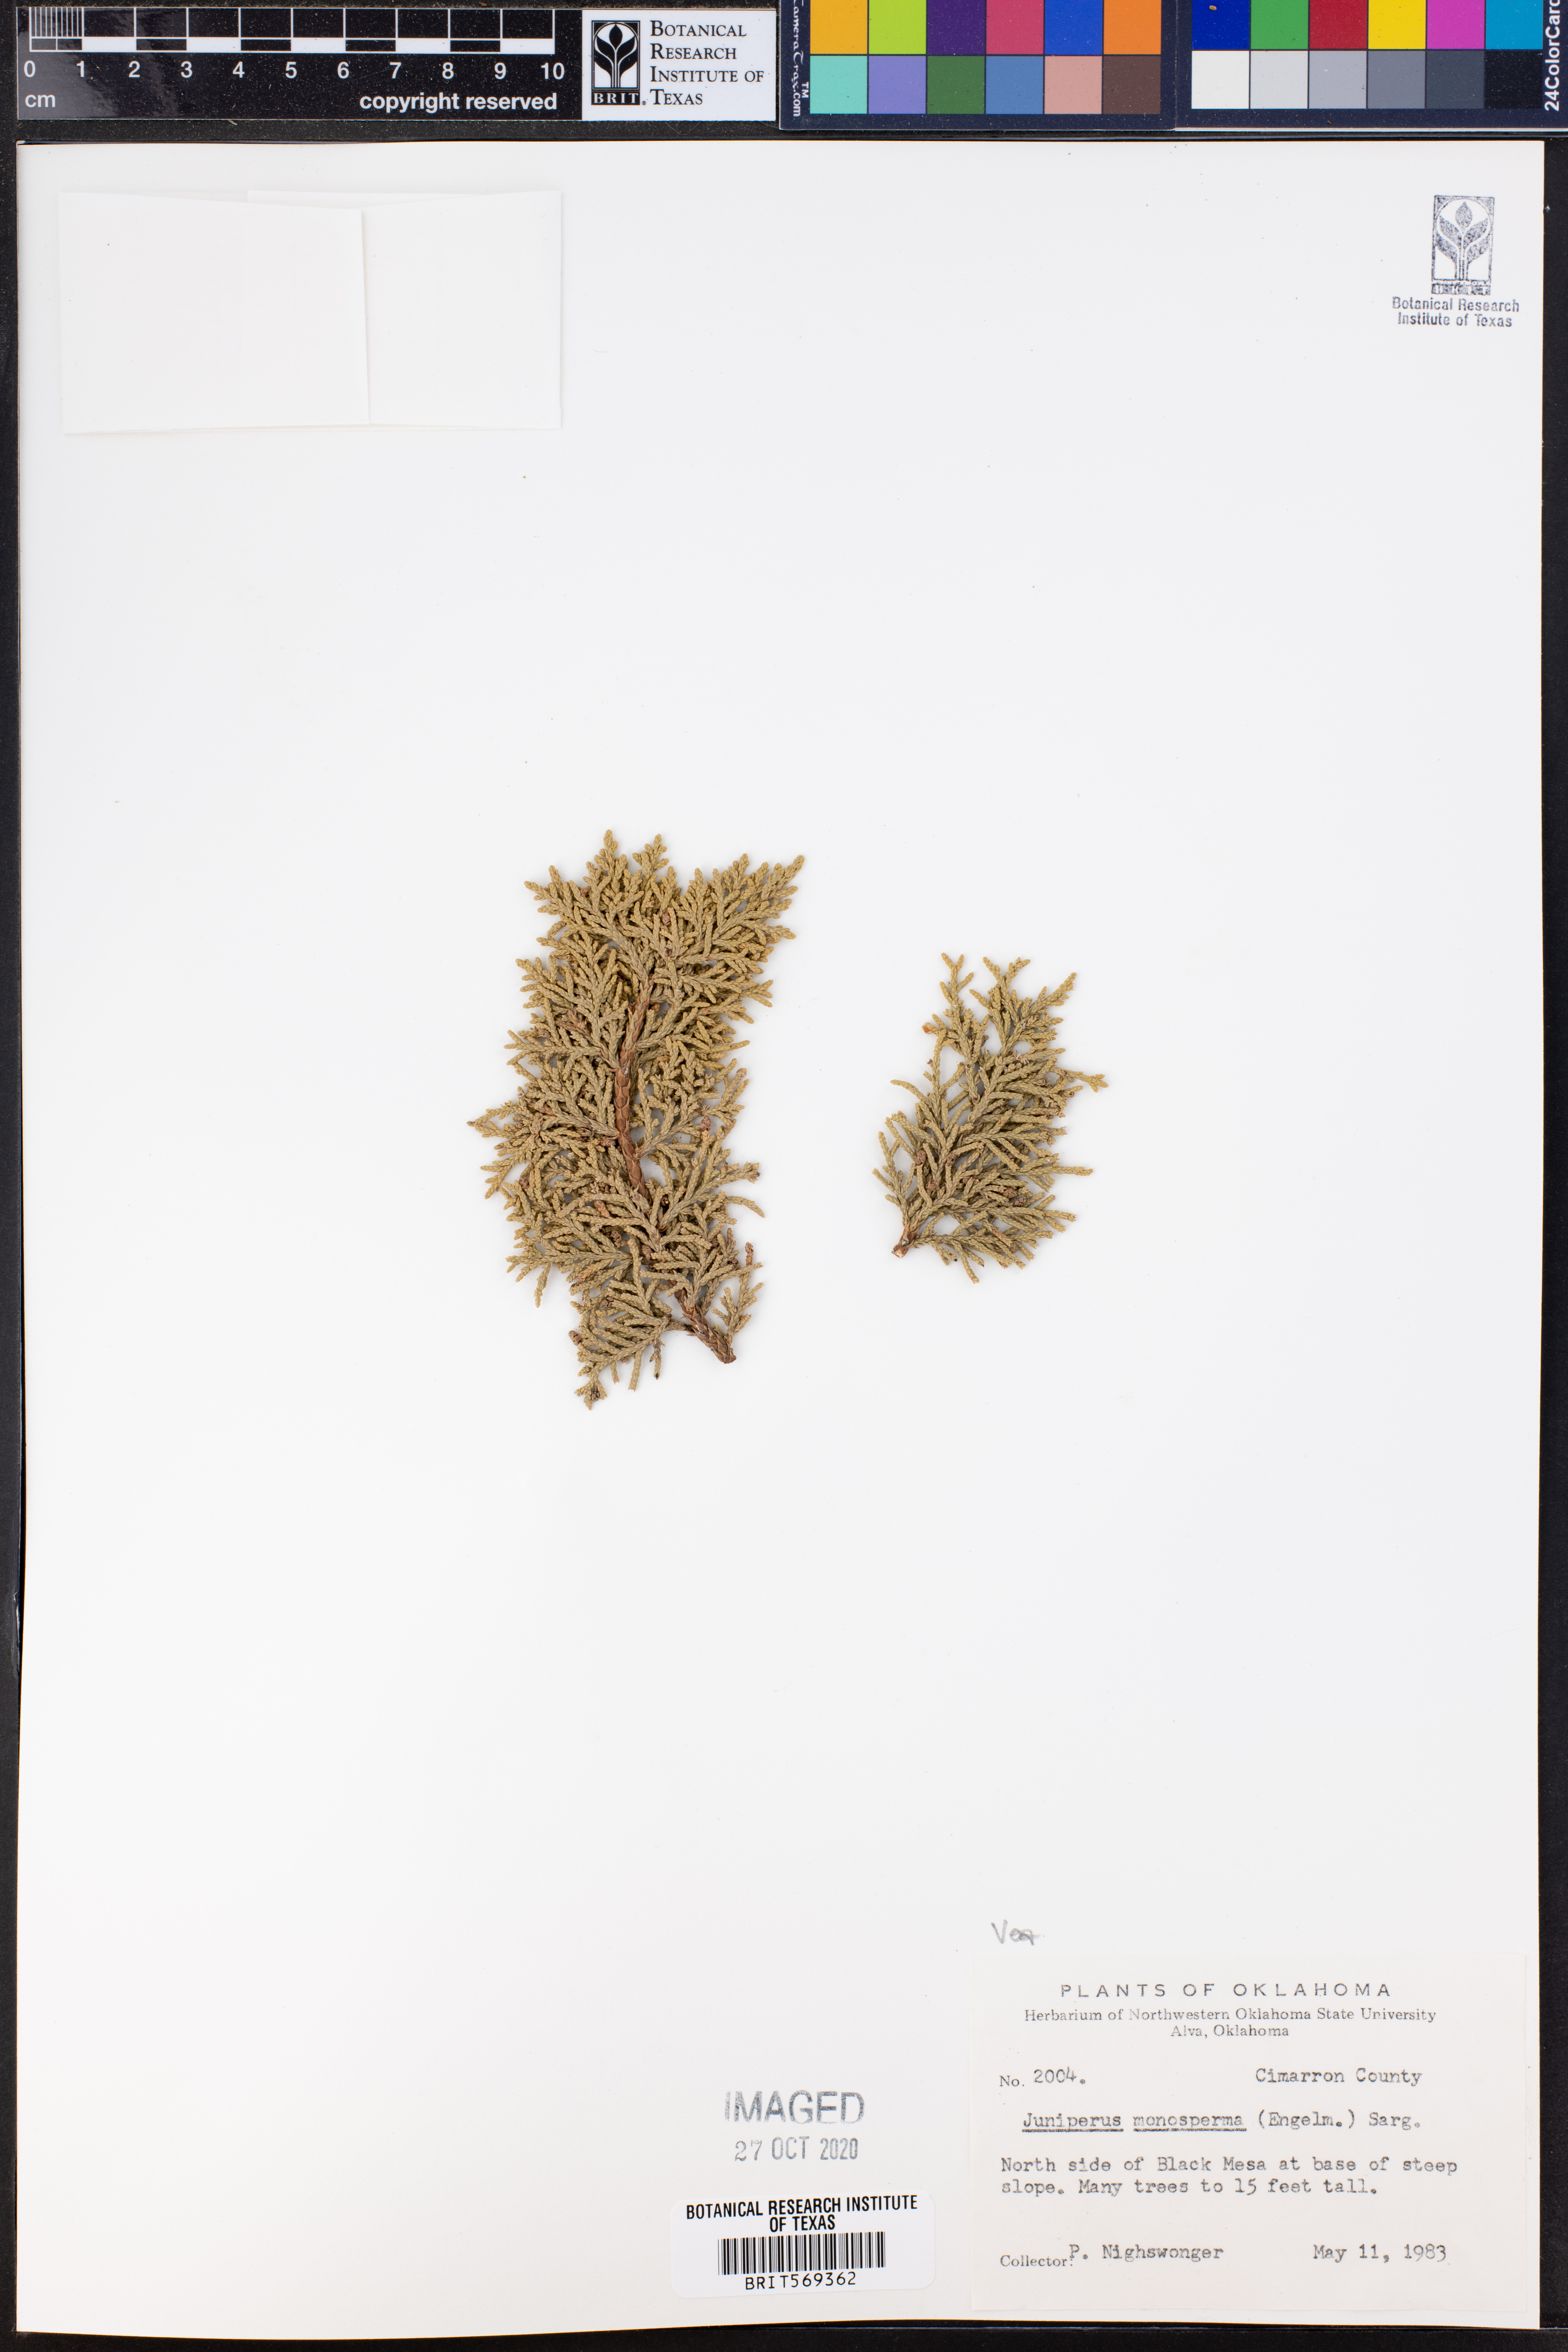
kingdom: Plantae
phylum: Tracheophyta
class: Pinopsida
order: Pinales
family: Cupressaceae
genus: Juniperus
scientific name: Juniperus monosperma
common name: One-seed juniper
